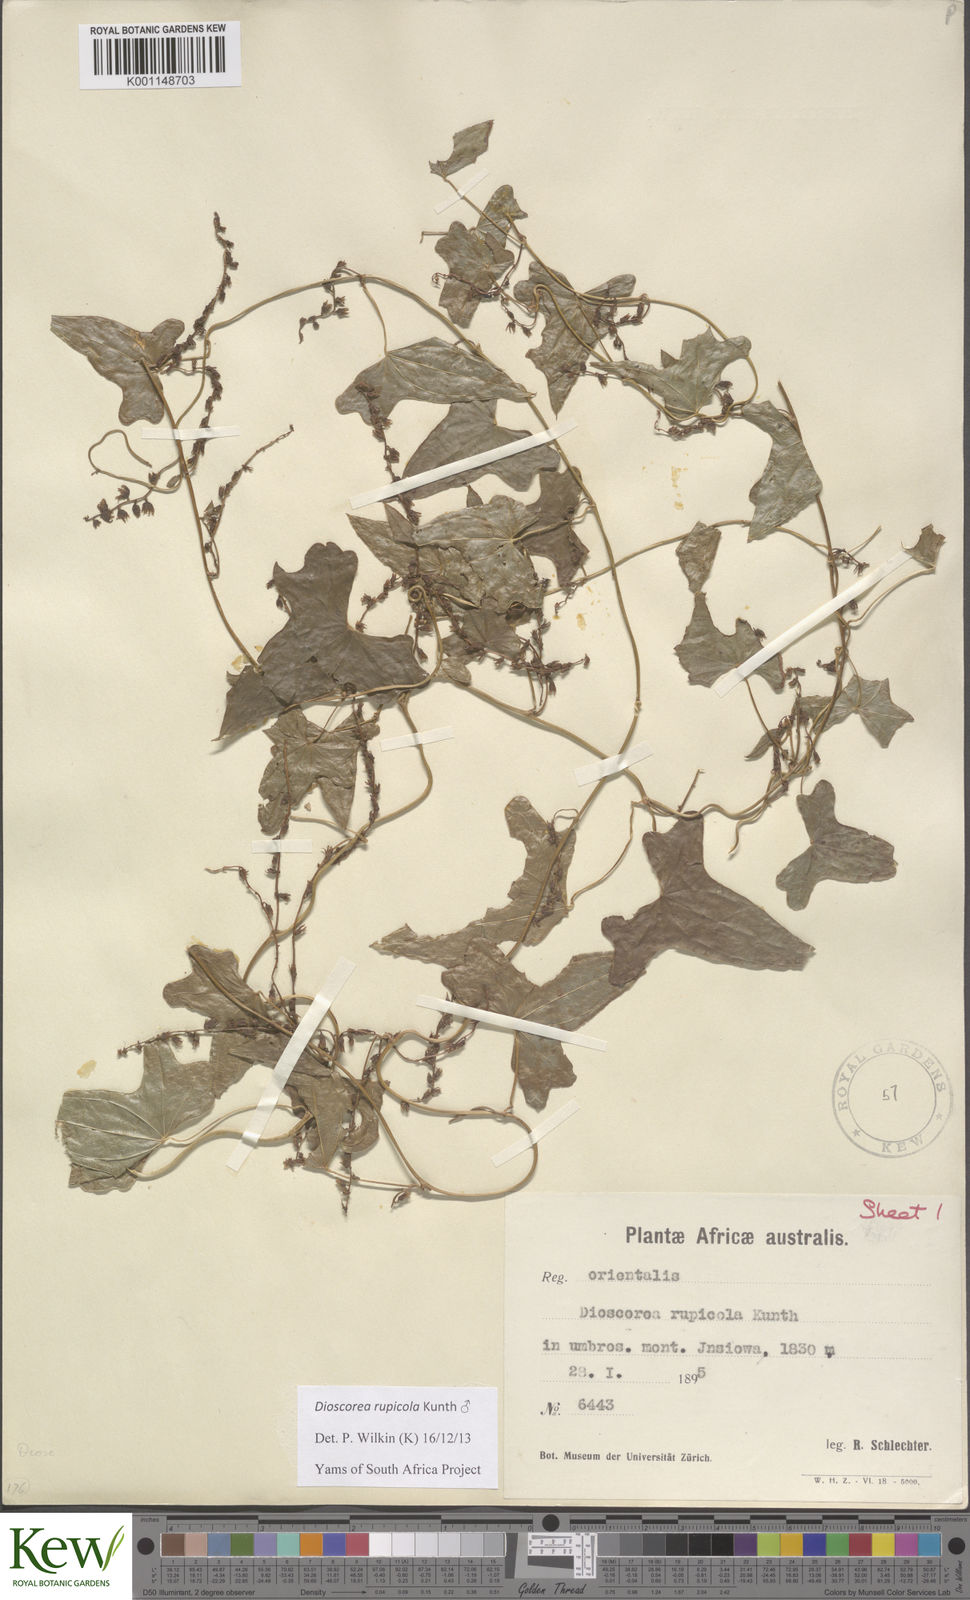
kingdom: Plantae
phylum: Tracheophyta
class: Liliopsida
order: Dioscoreales
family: Dioscoreaceae
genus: Dioscorea
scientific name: Dioscorea rupicola
